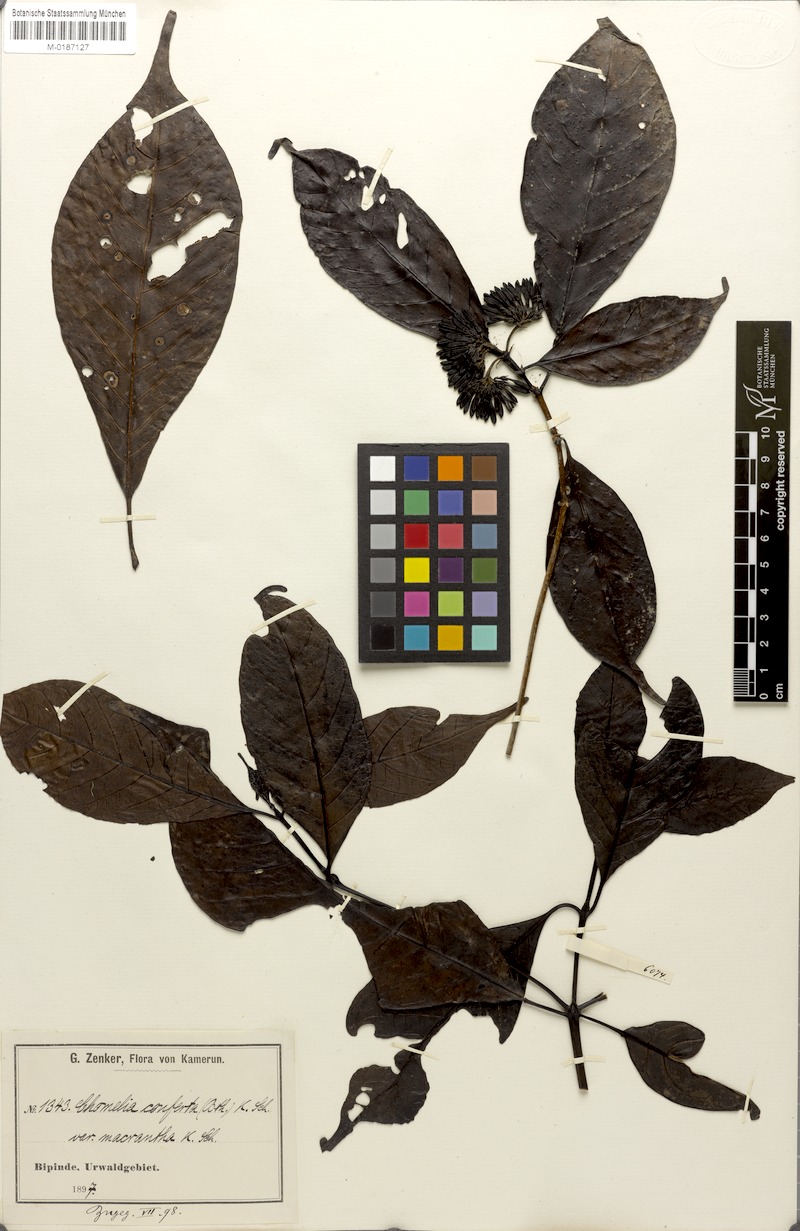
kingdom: Plantae
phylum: Tracheophyta
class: Magnoliopsida
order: Gentianales
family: Rubiaceae
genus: Tarenna
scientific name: Tarenna conferta
